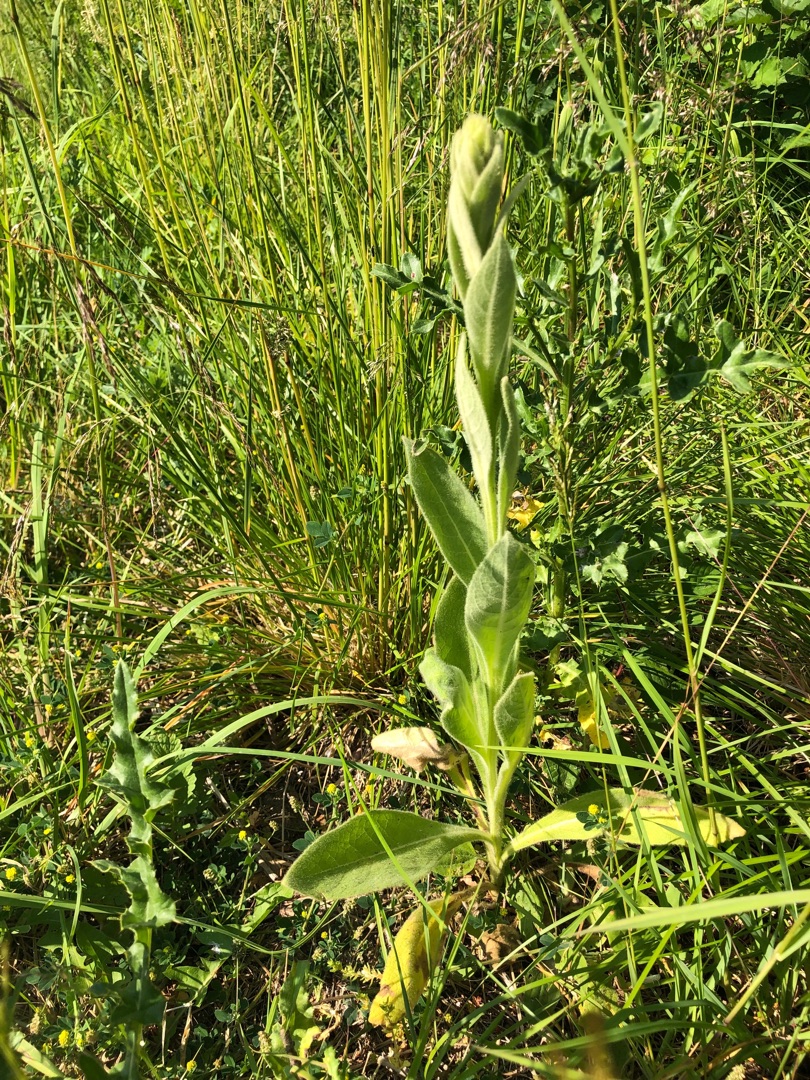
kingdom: Plantae
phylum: Tracheophyta
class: Magnoliopsida
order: Lamiales
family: Scrophulariaceae
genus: Verbascum
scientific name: Verbascum densiflorum
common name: Uldbladet kongelys
